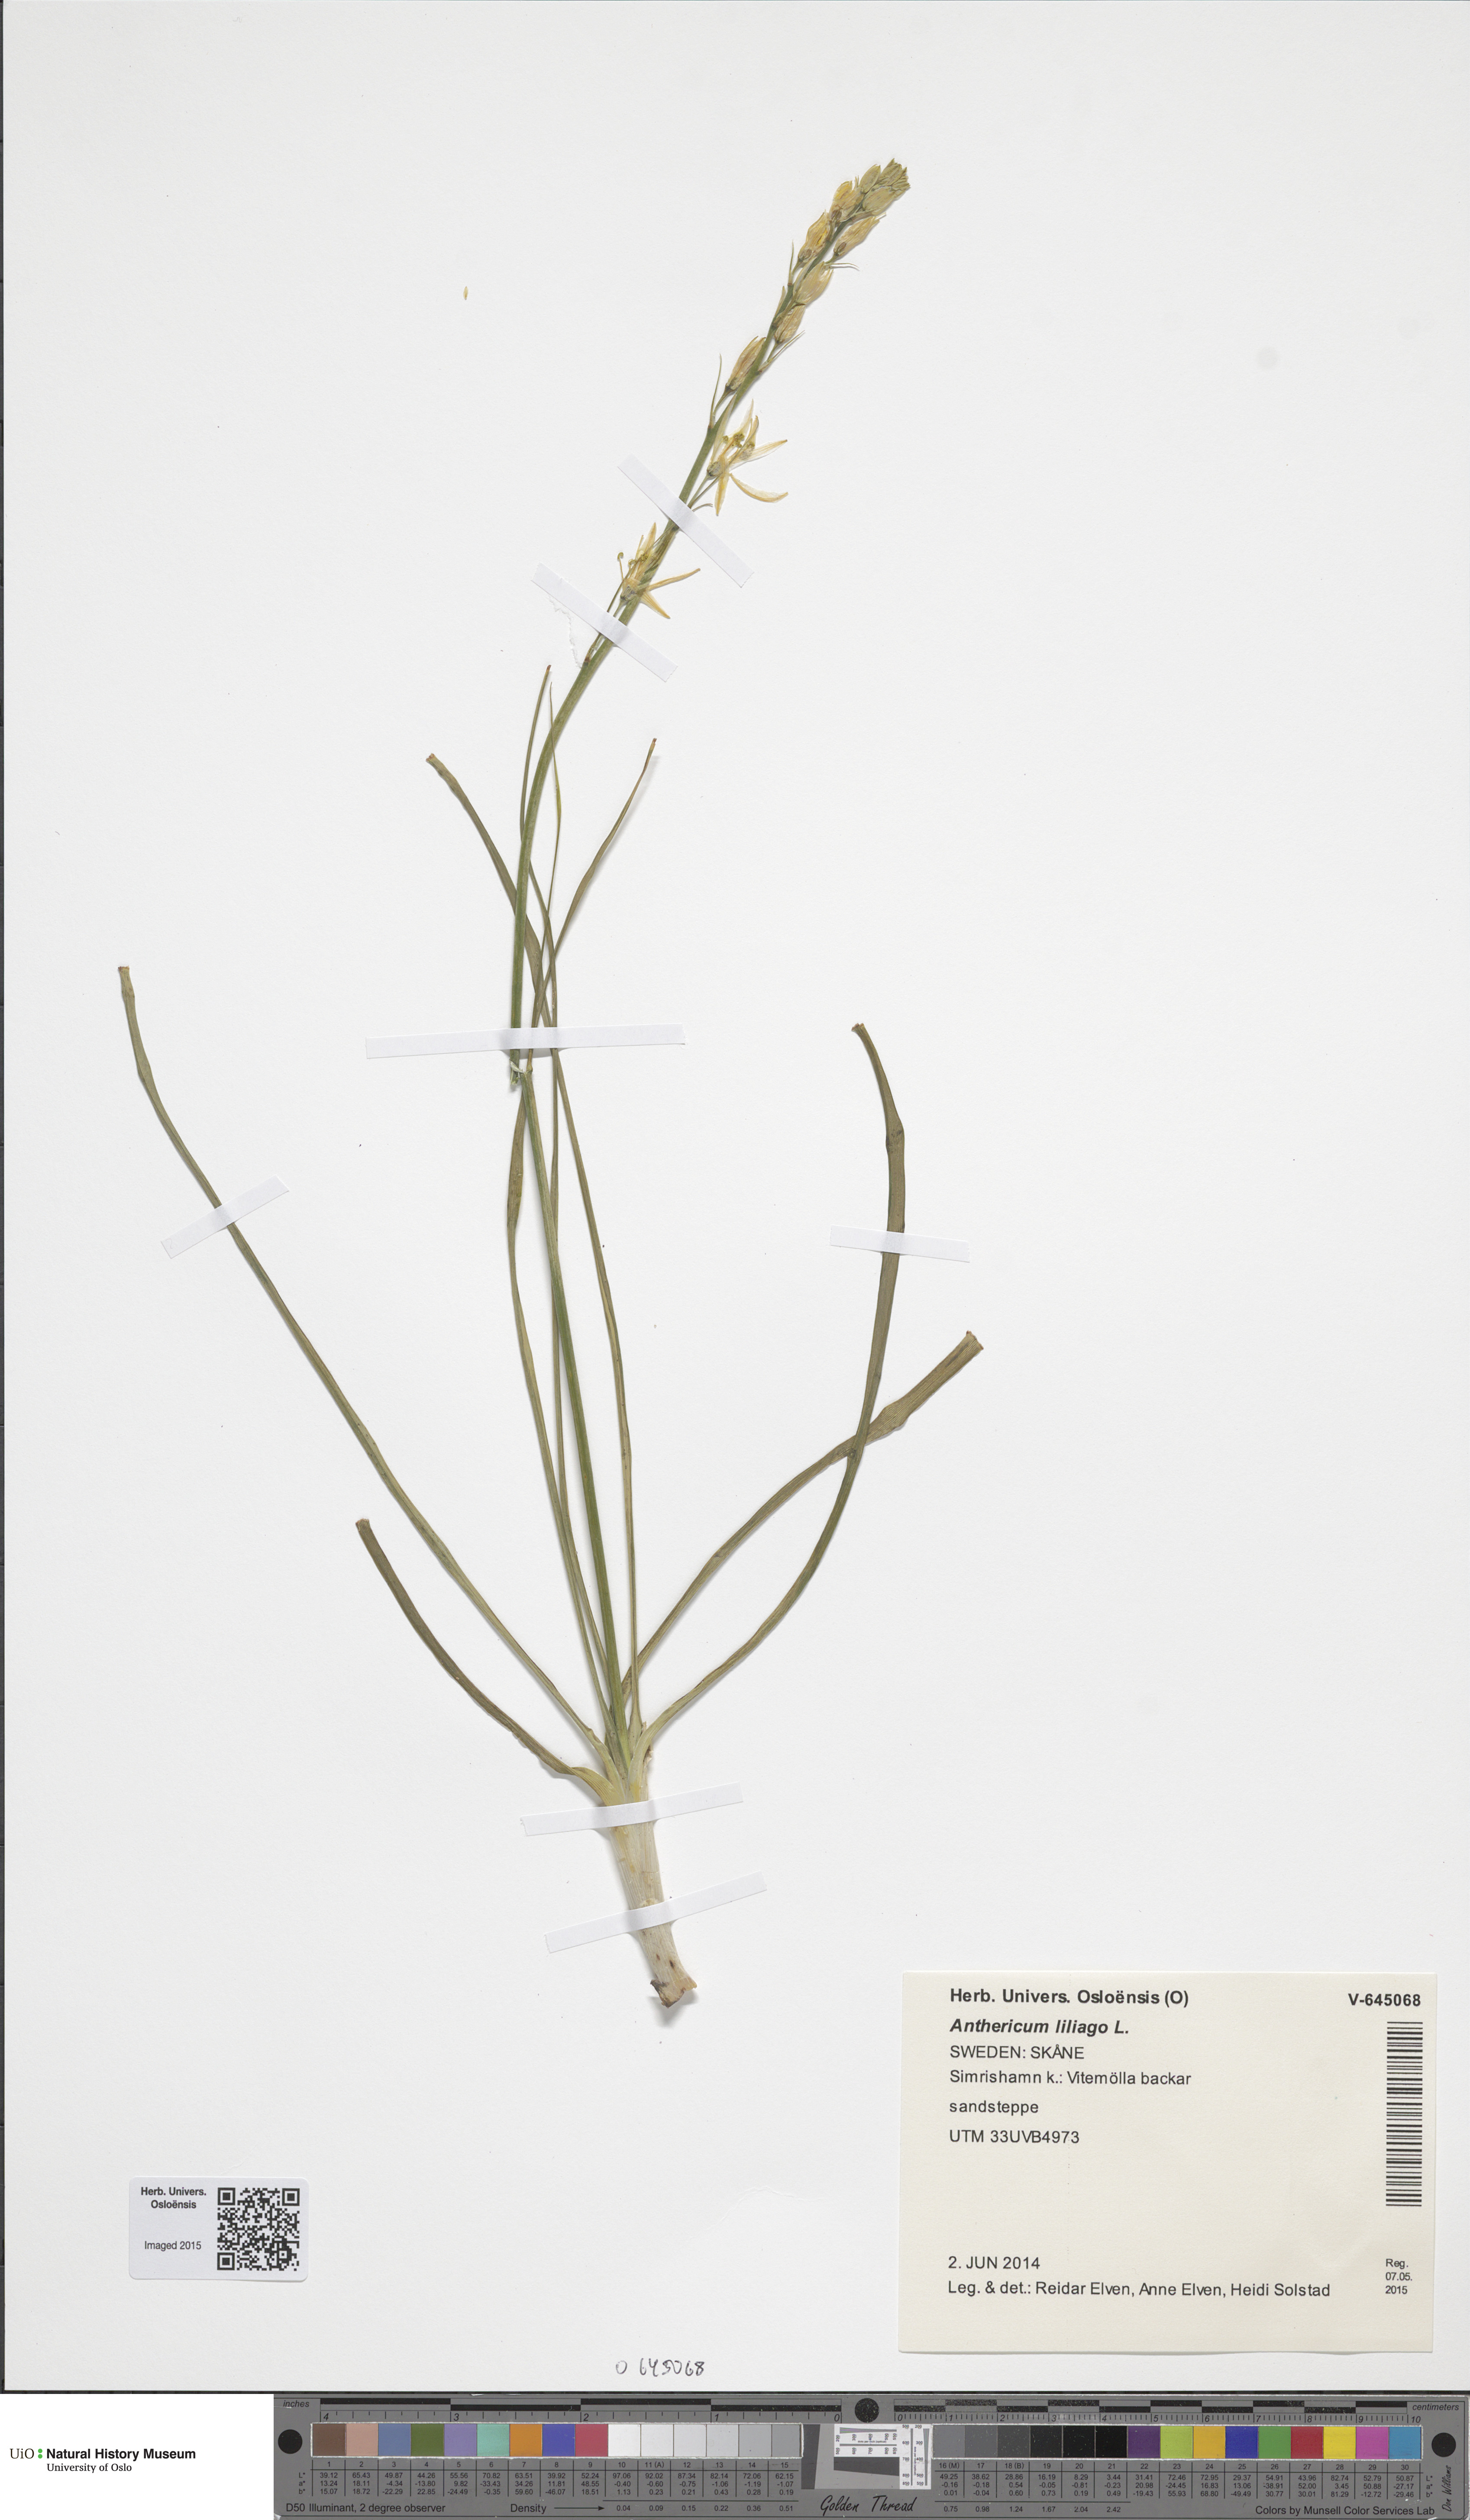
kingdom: Plantae
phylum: Tracheophyta
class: Liliopsida
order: Asparagales
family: Asparagaceae
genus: Anthericum
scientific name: Anthericum liliago
